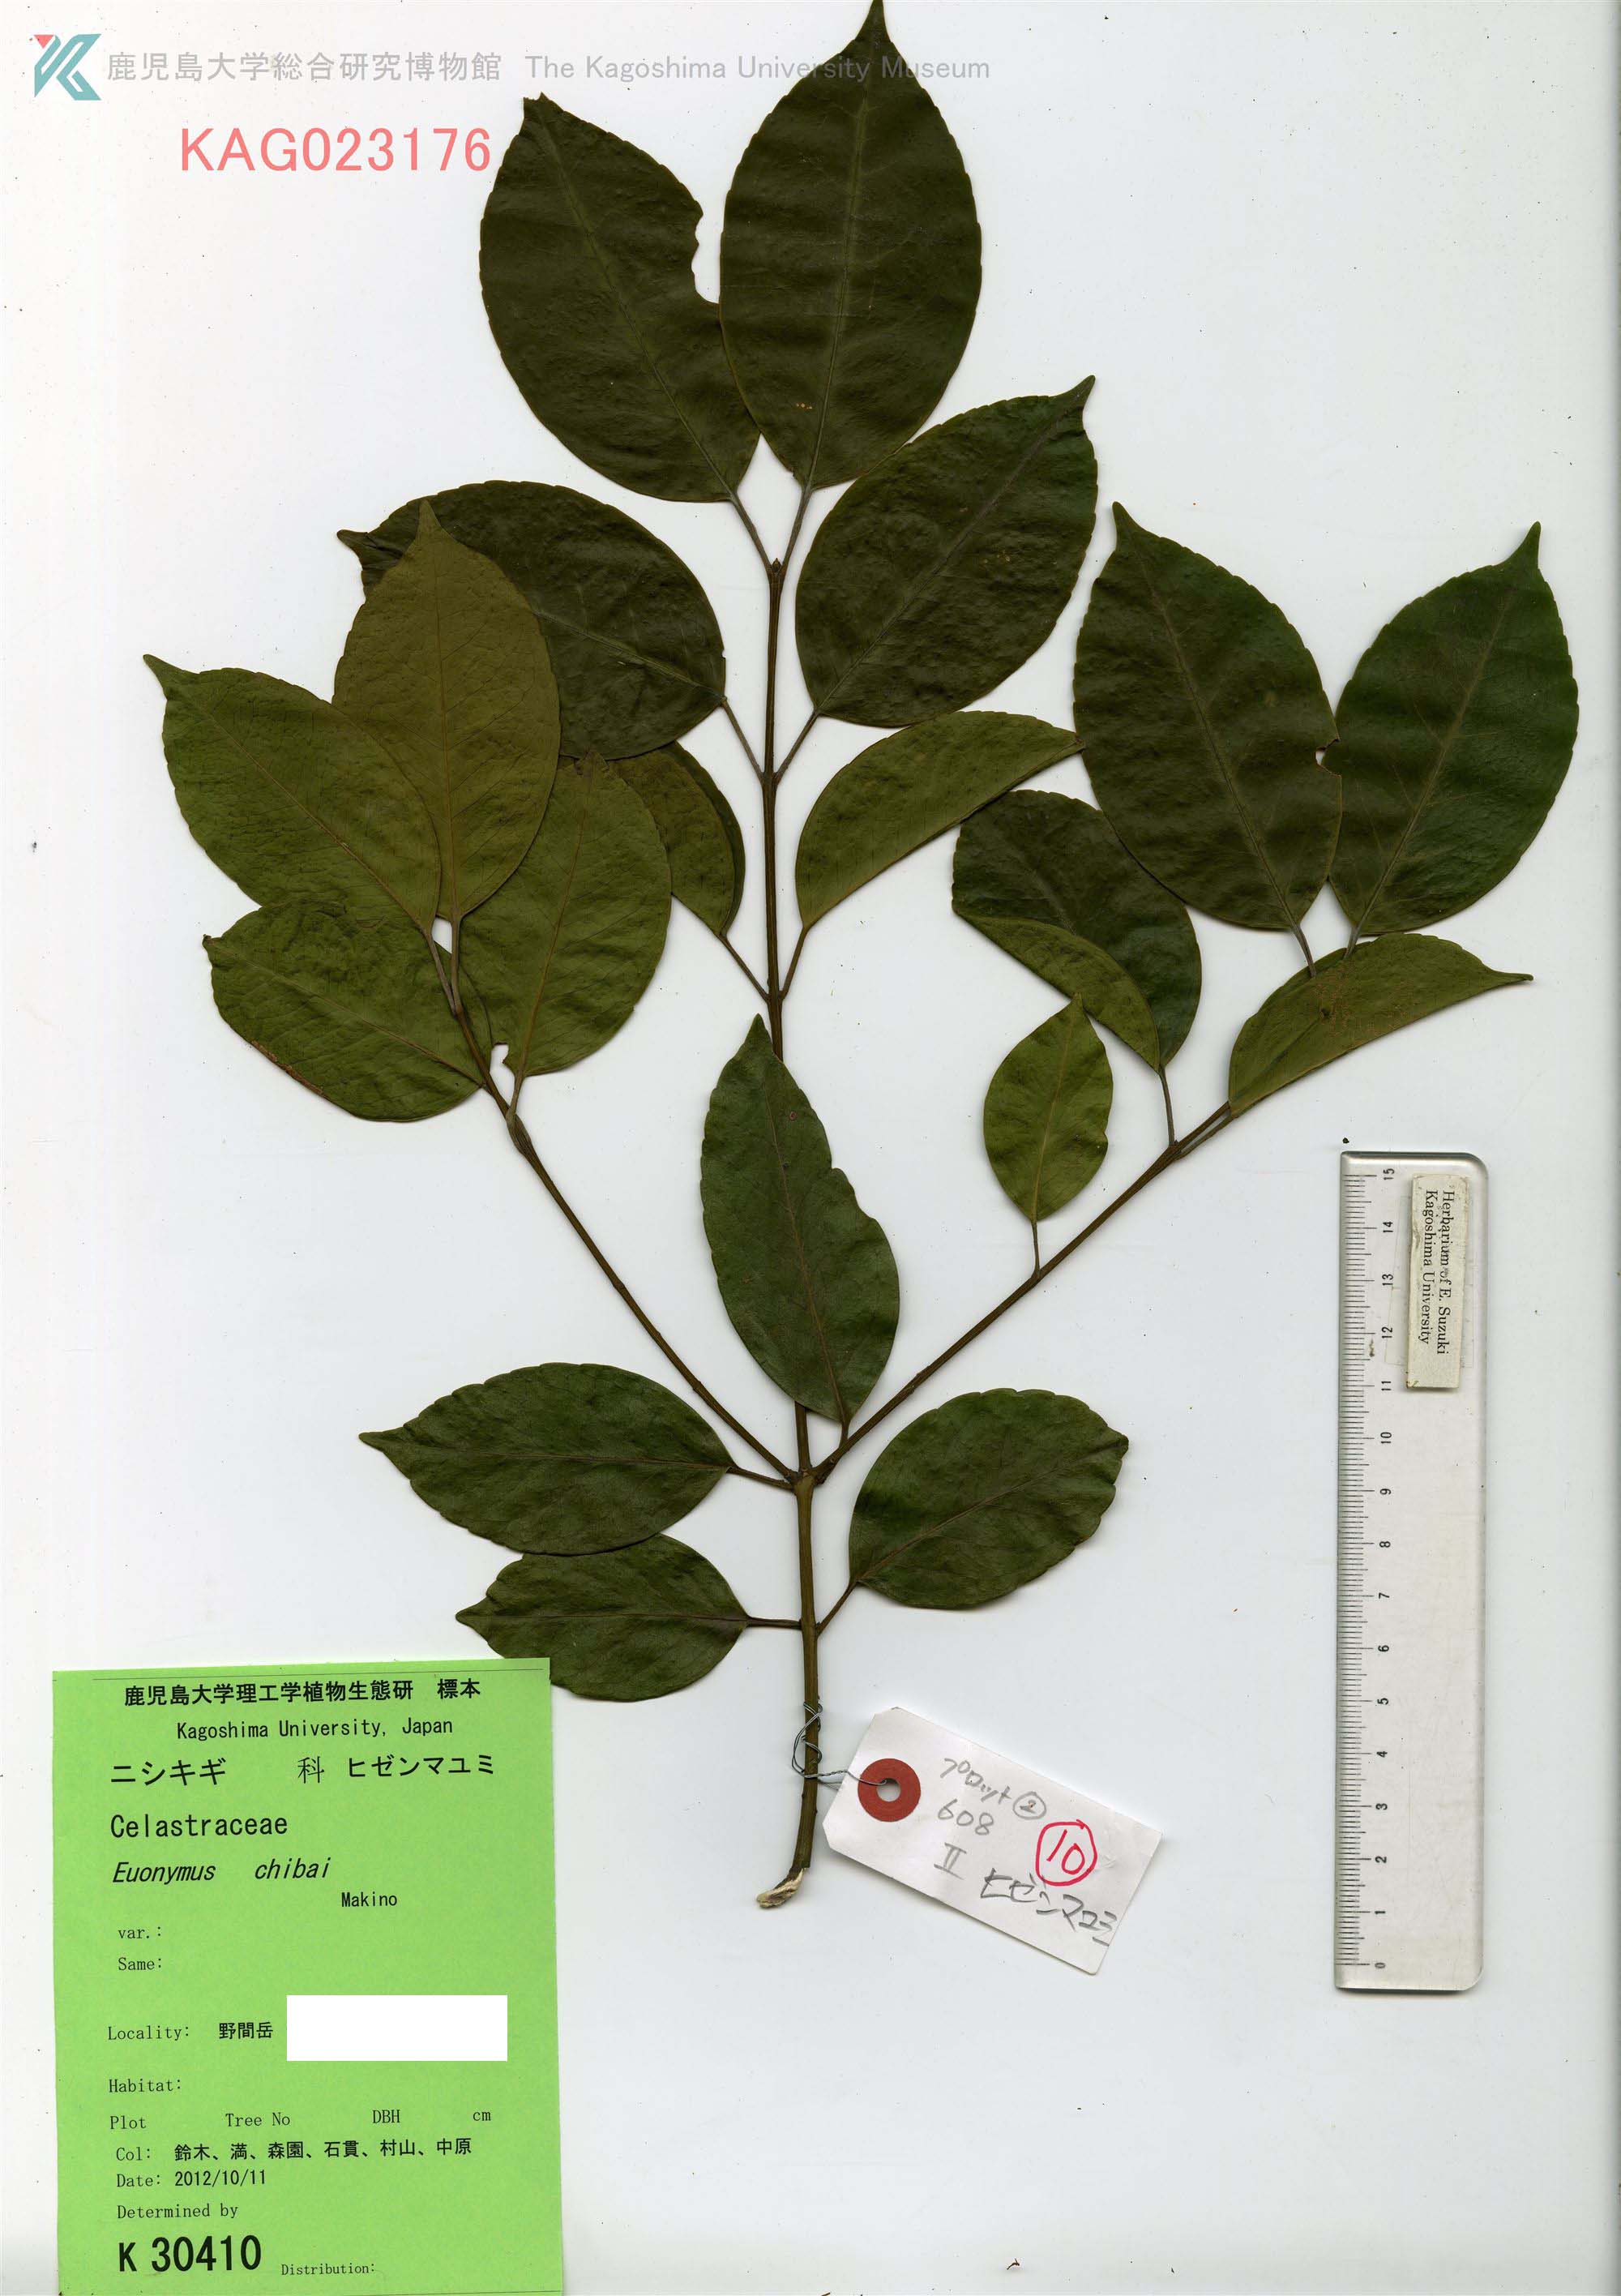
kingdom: Plantae
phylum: Tracheophyta
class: Magnoliopsida
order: Celastrales
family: Celastraceae
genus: Euonymus
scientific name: Euonymus chibae
